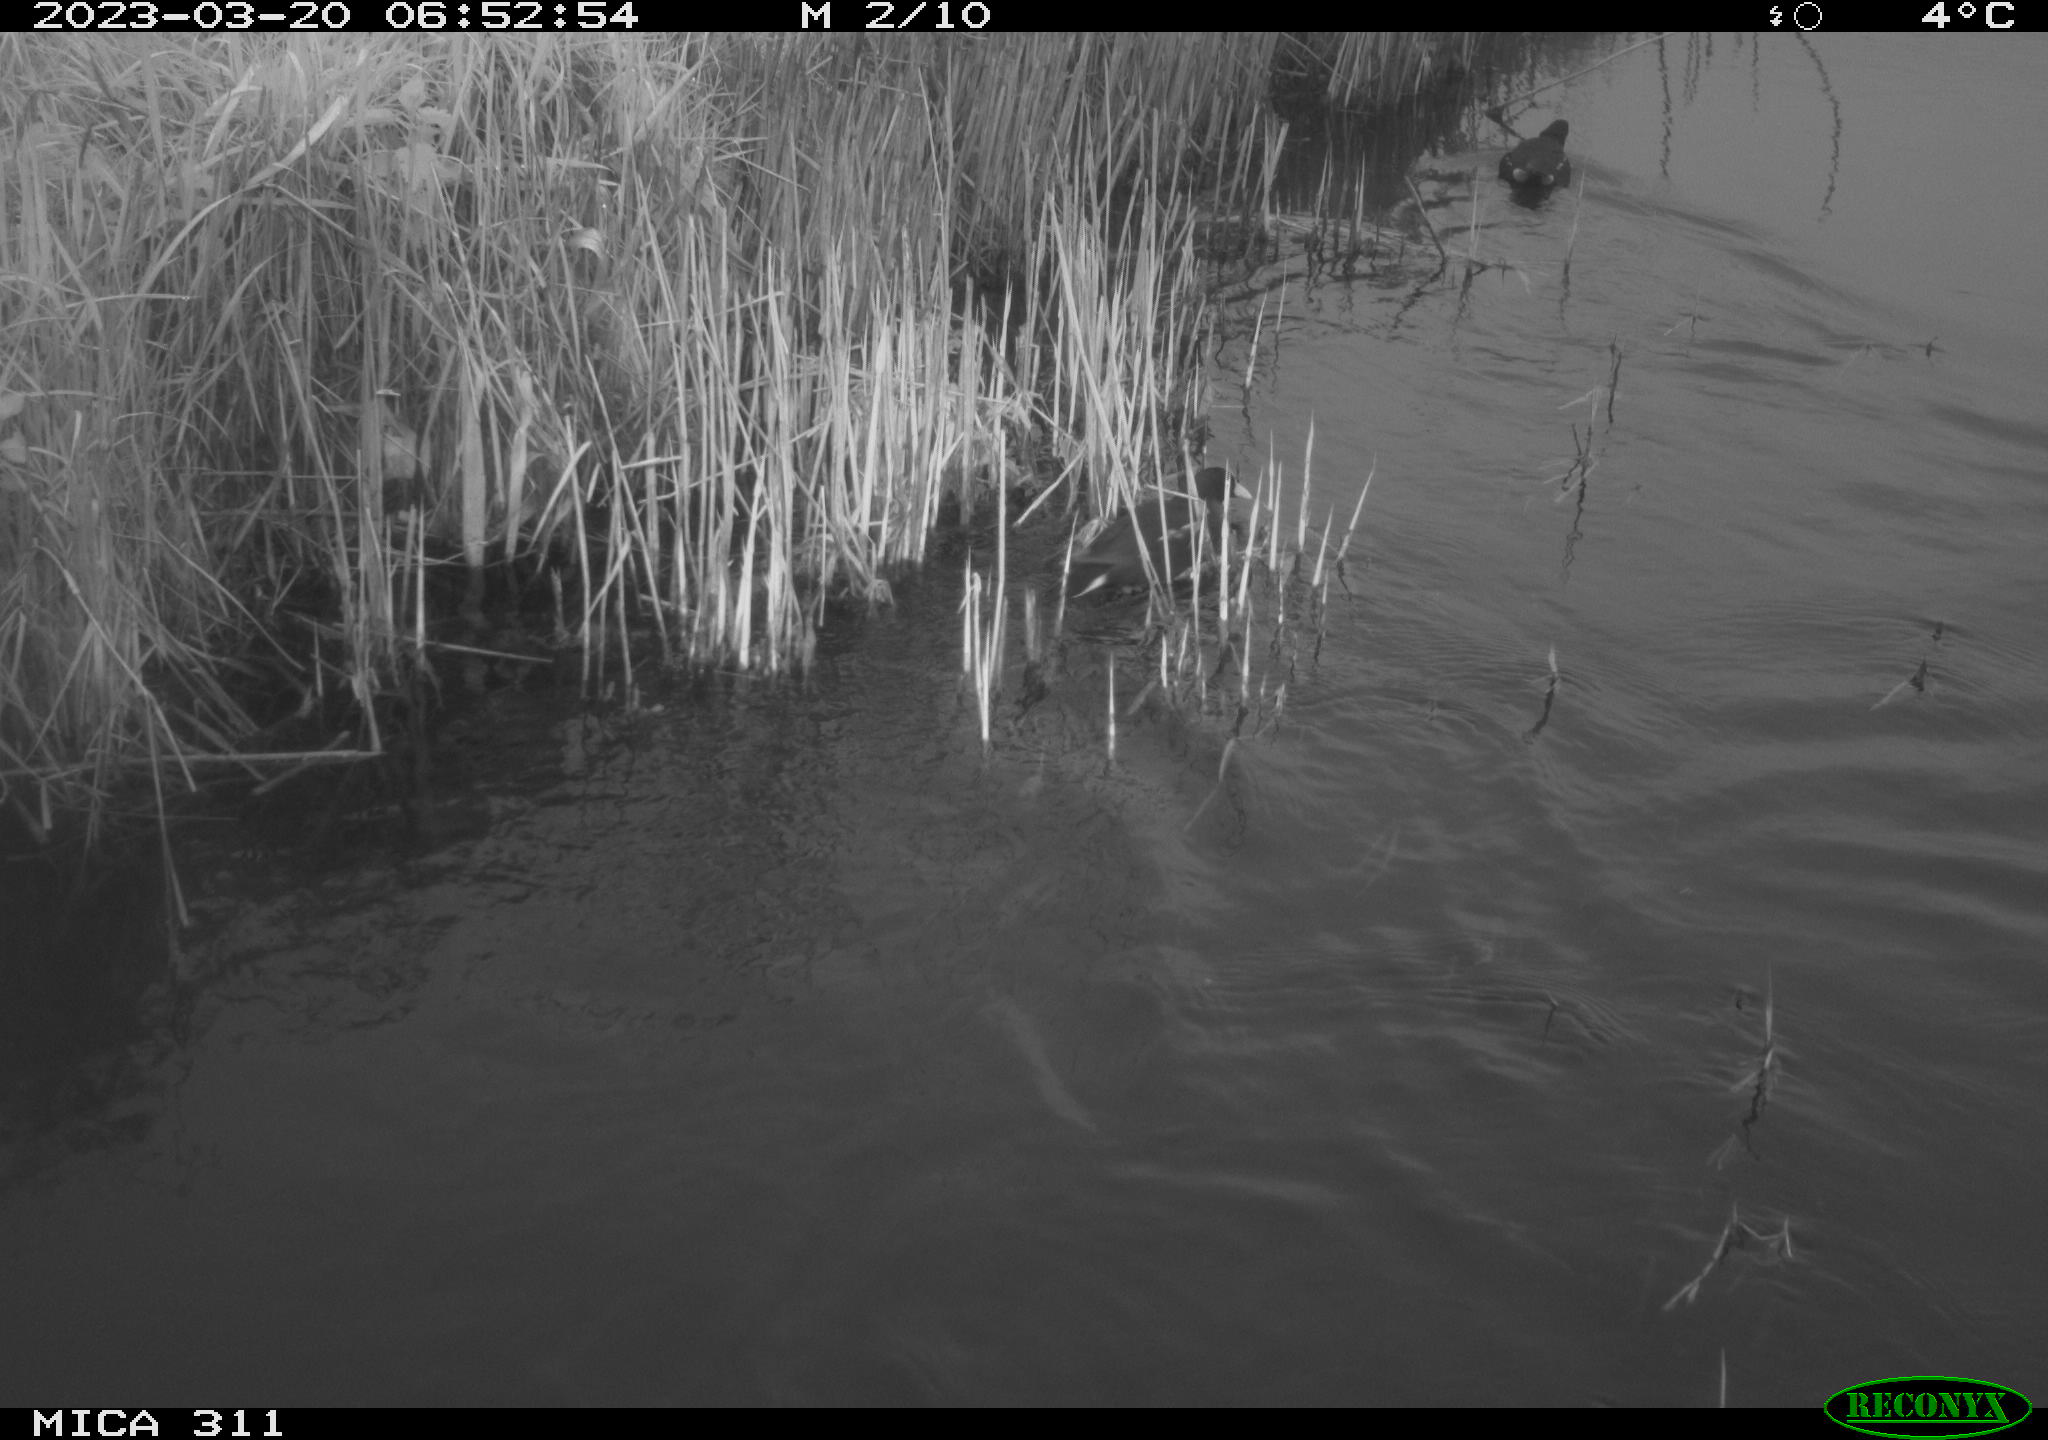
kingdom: Animalia
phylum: Chordata
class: Aves
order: Gruiformes
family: Rallidae
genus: Gallinula
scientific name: Gallinula chloropus
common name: Common moorhen
